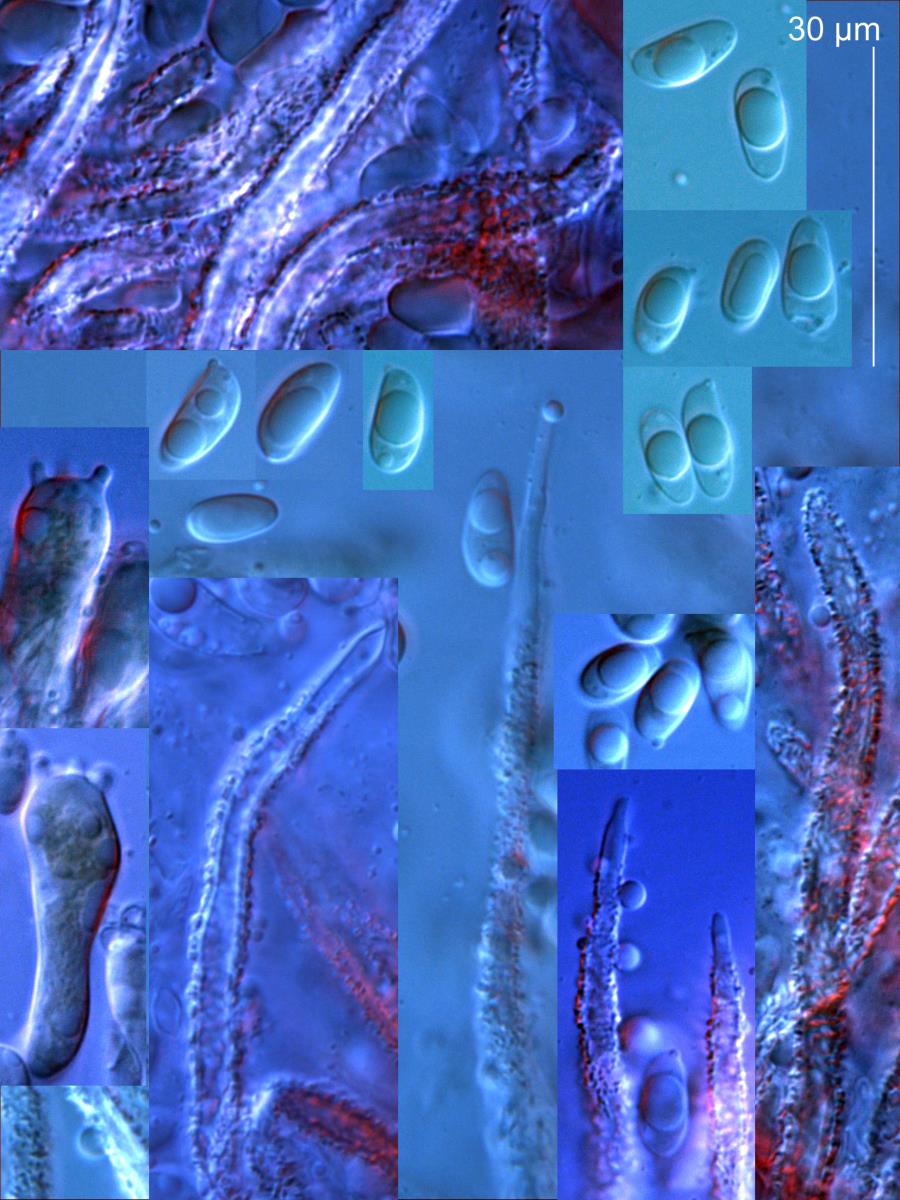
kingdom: Fungi
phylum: Basidiomycota
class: Agaricomycetes
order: Agaricales
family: Niaceae
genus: Flagelloscypha
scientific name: Flagelloscypha
